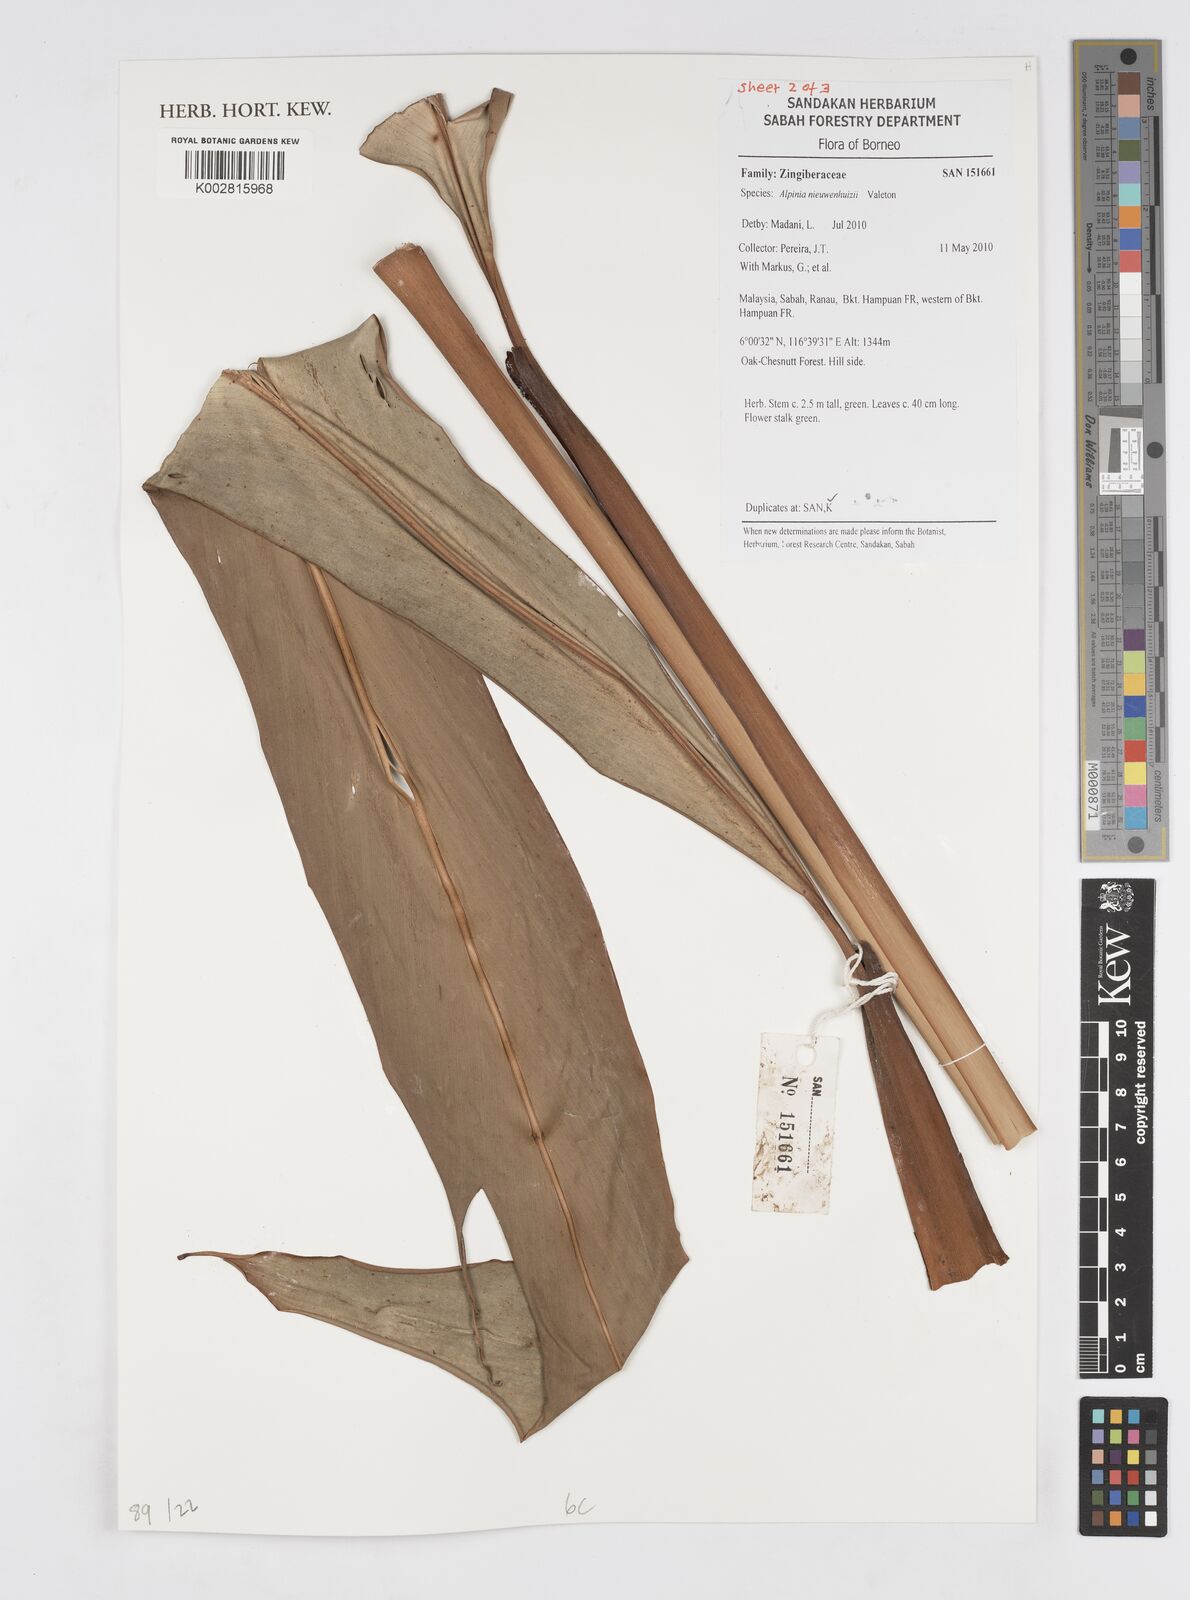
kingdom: Plantae
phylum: Tracheophyta
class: Liliopsida
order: Zingiberales
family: Zingiberaceae
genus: Alpinia
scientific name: Alpinia nieuwenhuizii
